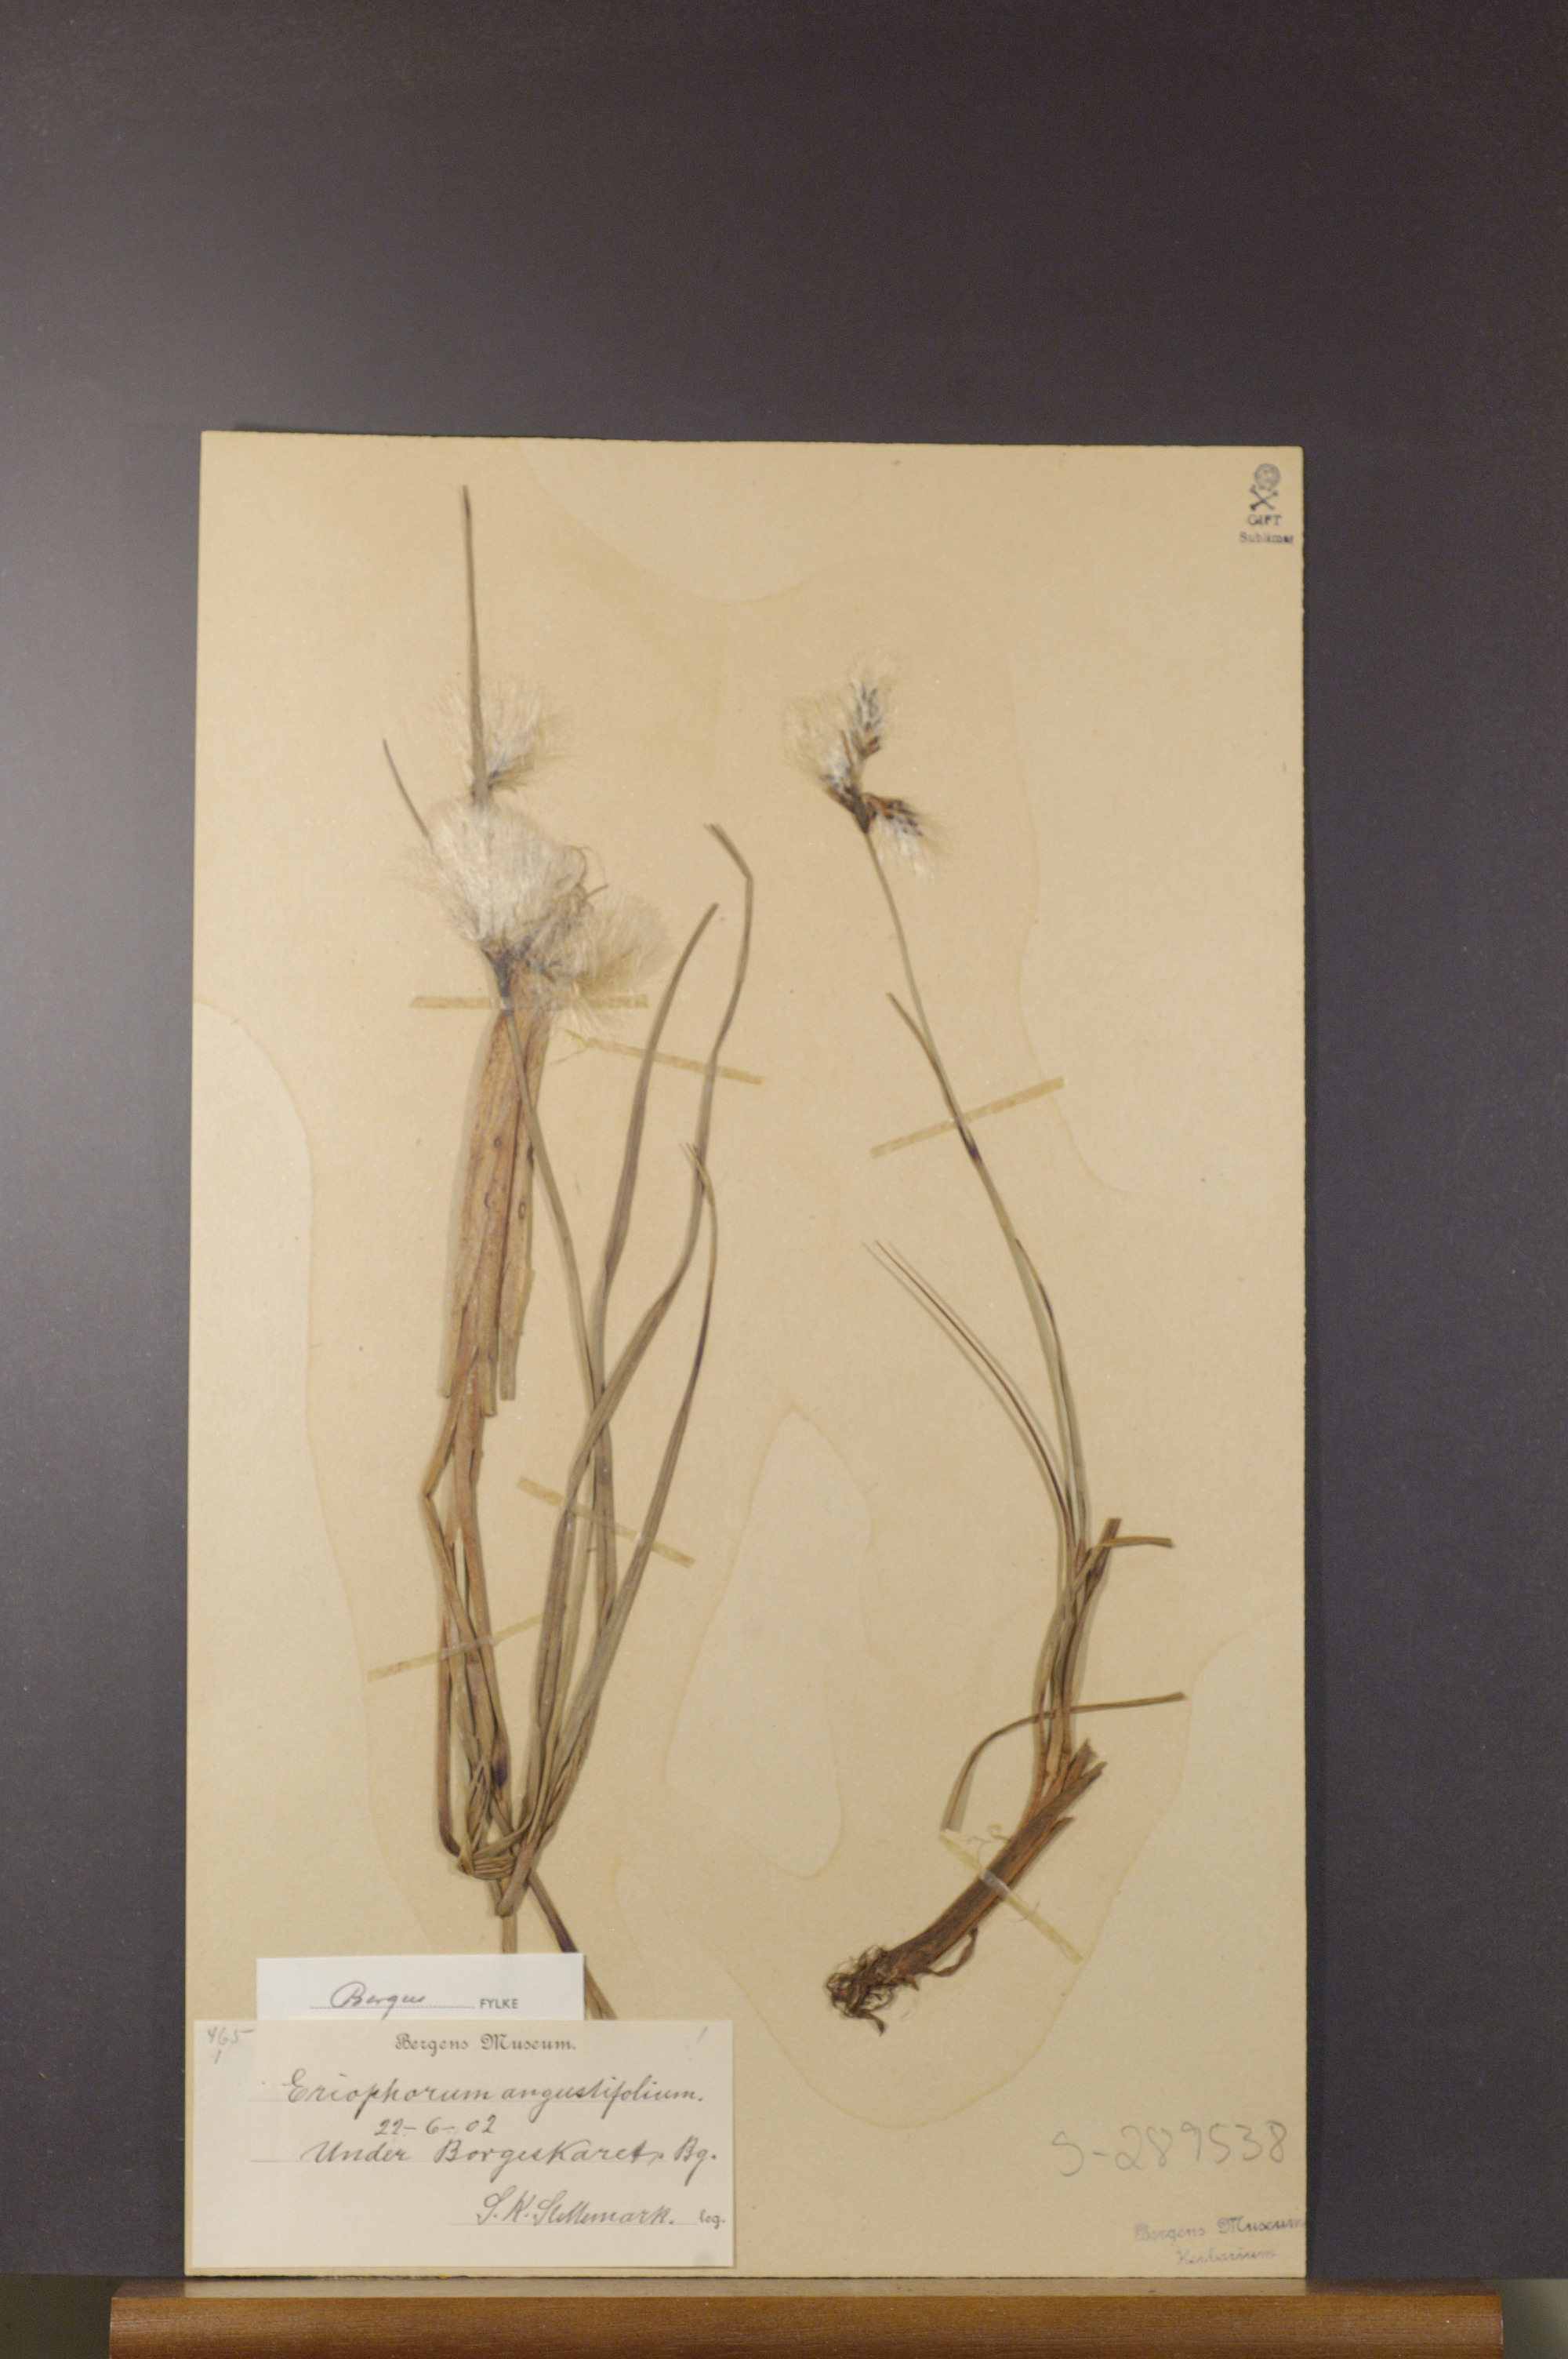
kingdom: Plantae
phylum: Tracheophyta
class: Liliopsida
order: Poales
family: Cyperaceae
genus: Eriophorum
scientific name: Eriophorum angustifolium
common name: Common cottongrass
